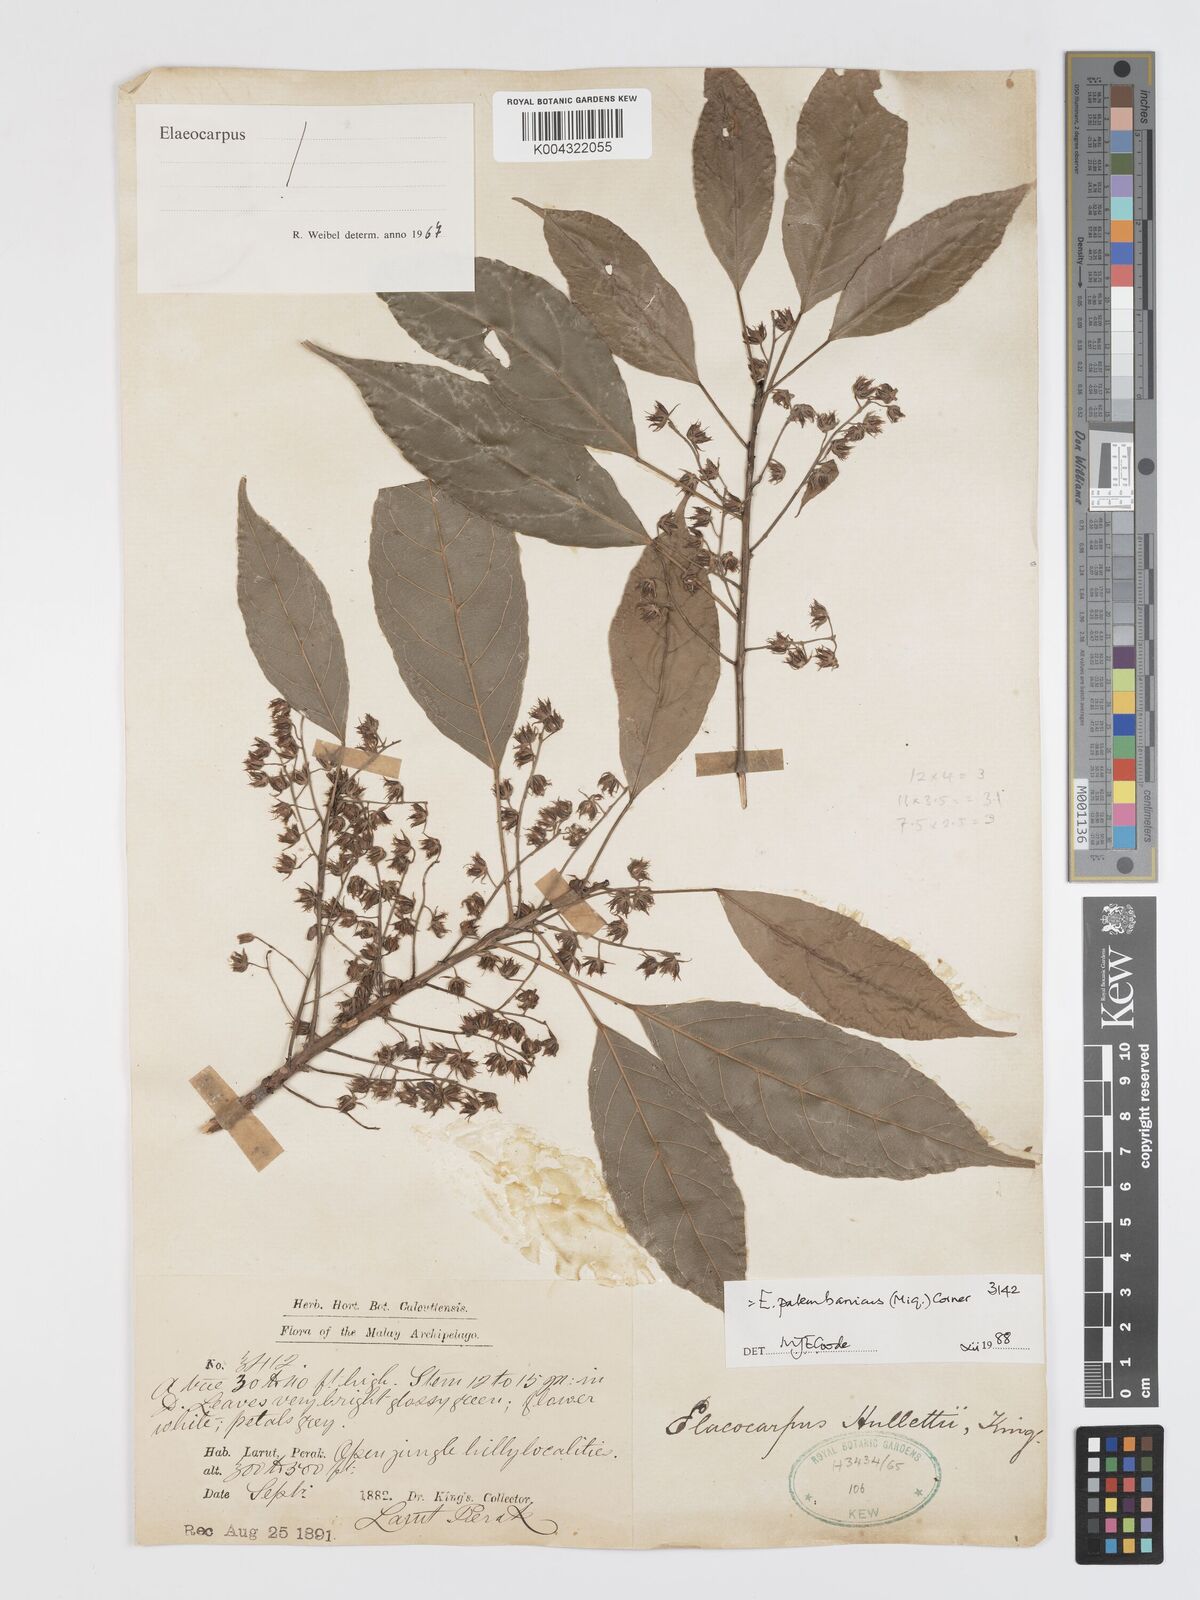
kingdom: Plantae
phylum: Tracheophyta
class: Magnoliopsida
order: Oxalidales
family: Elaeocarpaceae
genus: Elaeocarpus
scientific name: Elaeocarpus palembanicus
